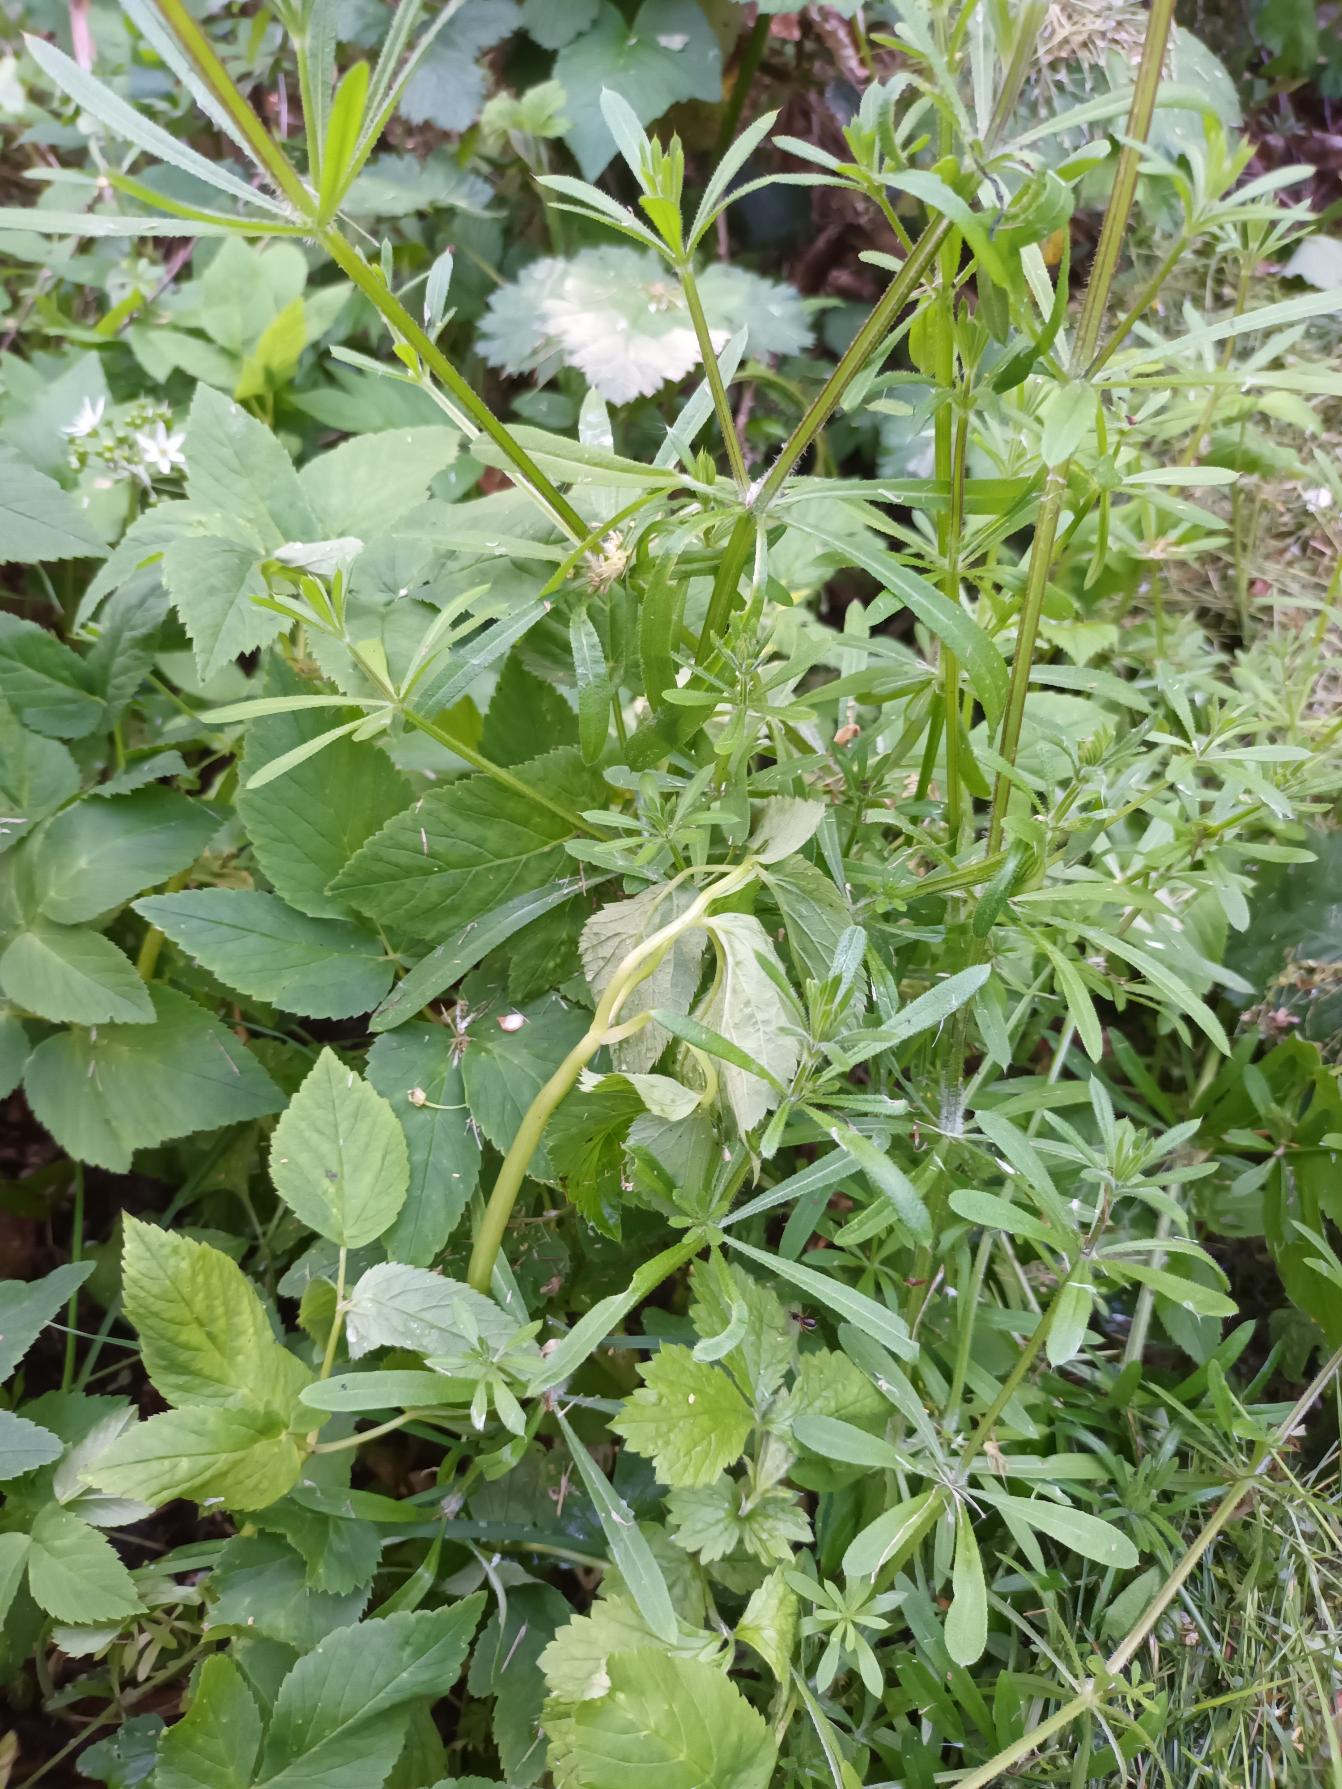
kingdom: Plantae
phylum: Tracheophyta
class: Magnoliopsida
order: Gentianales
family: Rubiaceae
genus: Galium
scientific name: Galium aparine
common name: Burre-snerre
